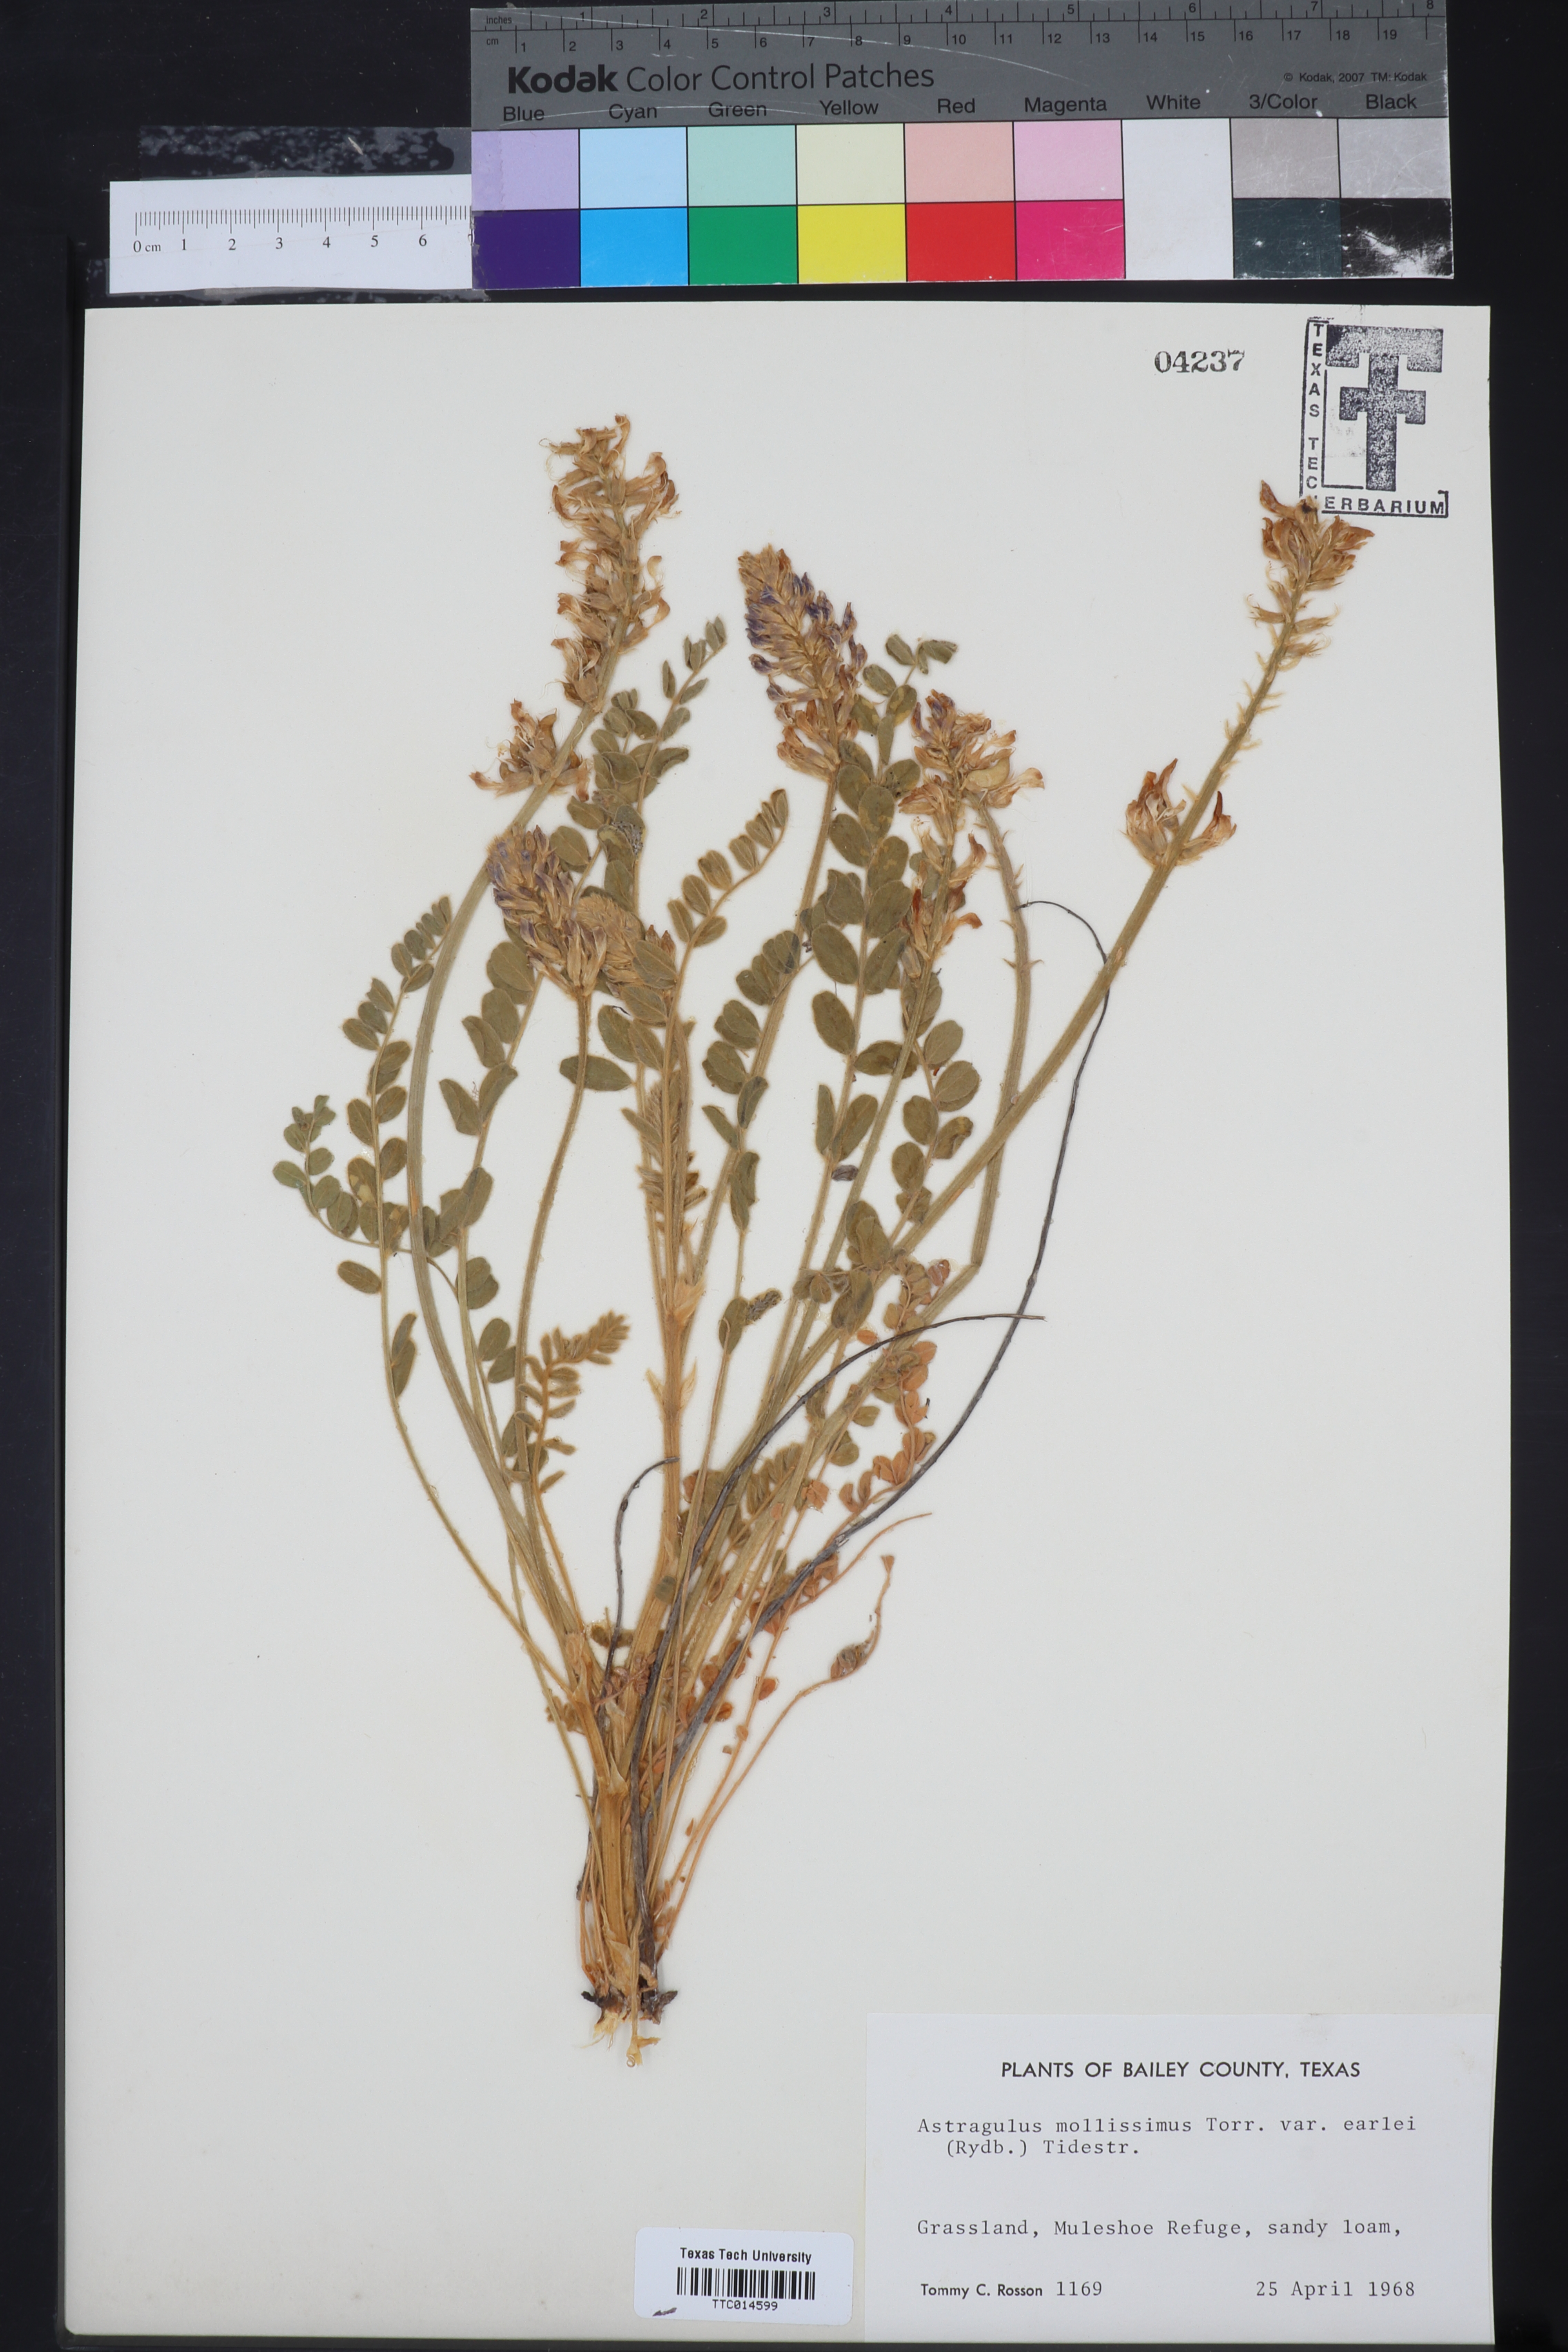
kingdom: Plantae
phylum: Tracheophyta
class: Magnoliopsida
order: Fabales
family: Fabaceae
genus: Astragalus
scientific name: Astragalus missouriensis
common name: Missouri milk-vetch
